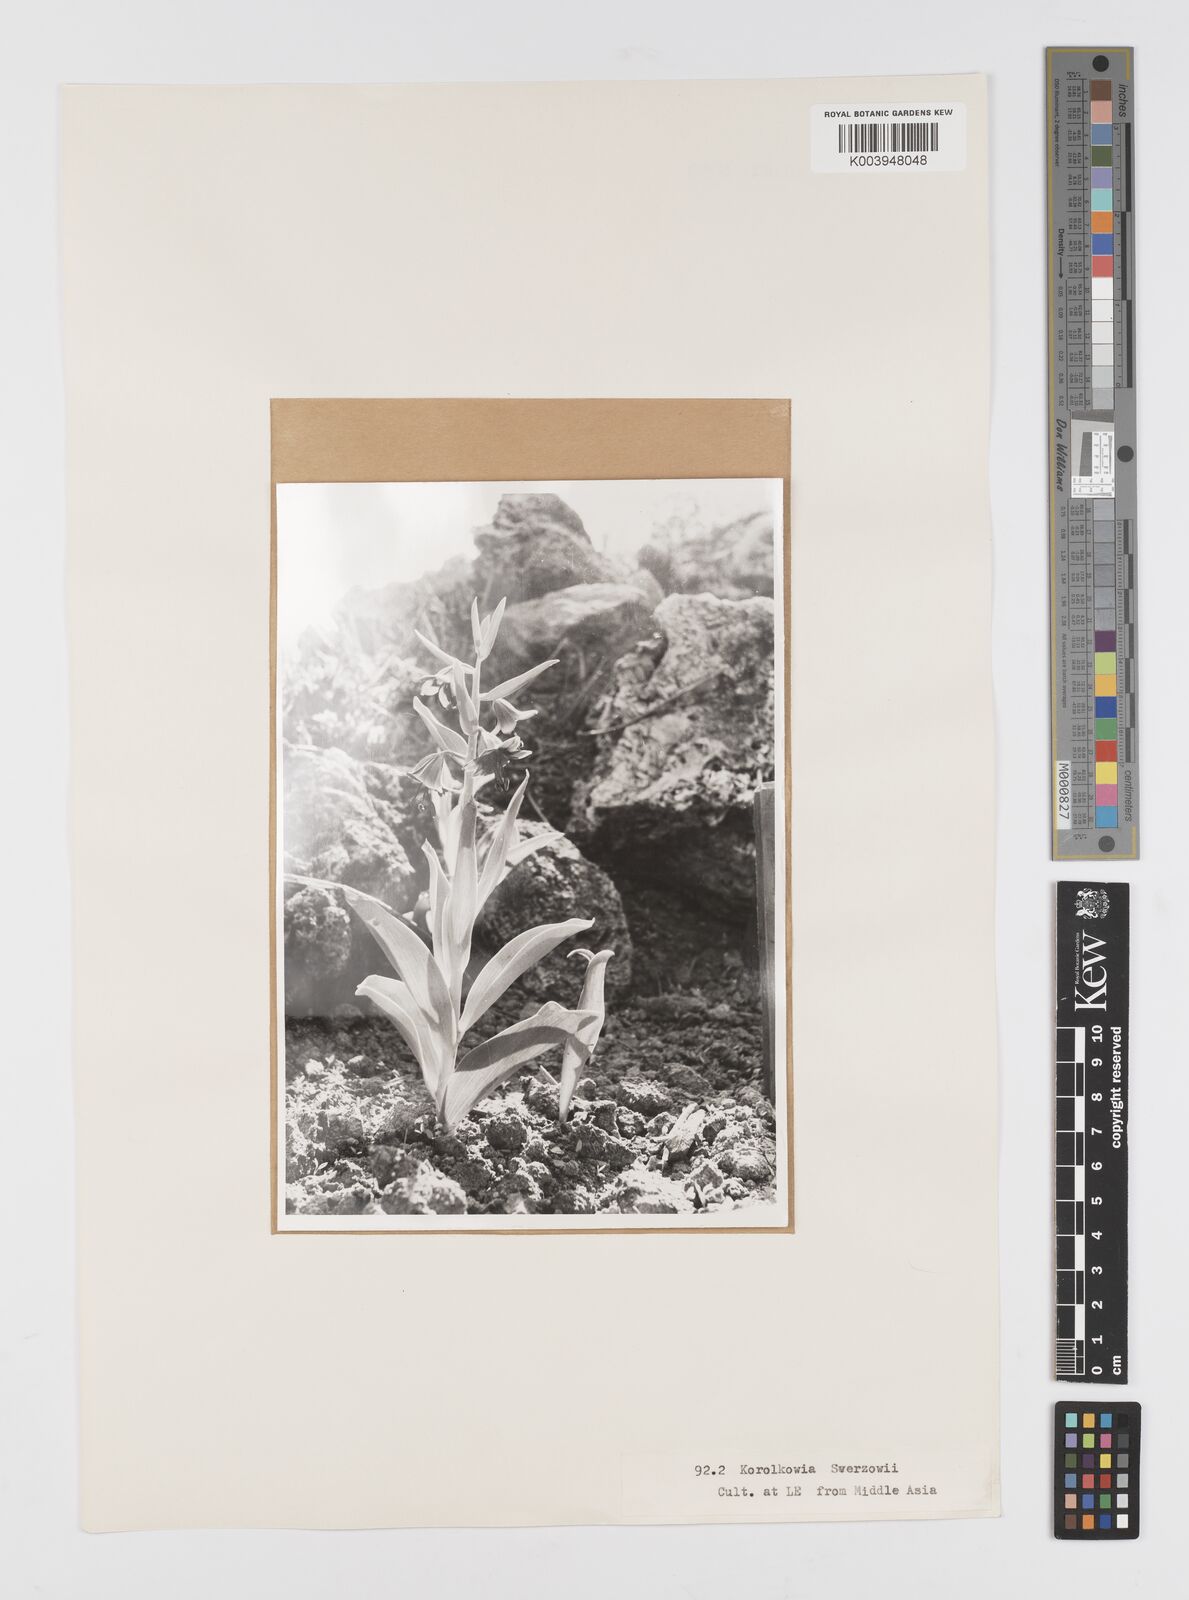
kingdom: Plantae
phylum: Tracheophyta
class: Liliopsida
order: Liliales
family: Liliaceae
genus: Fritillaria
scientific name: Fritillaria sewerzowii
